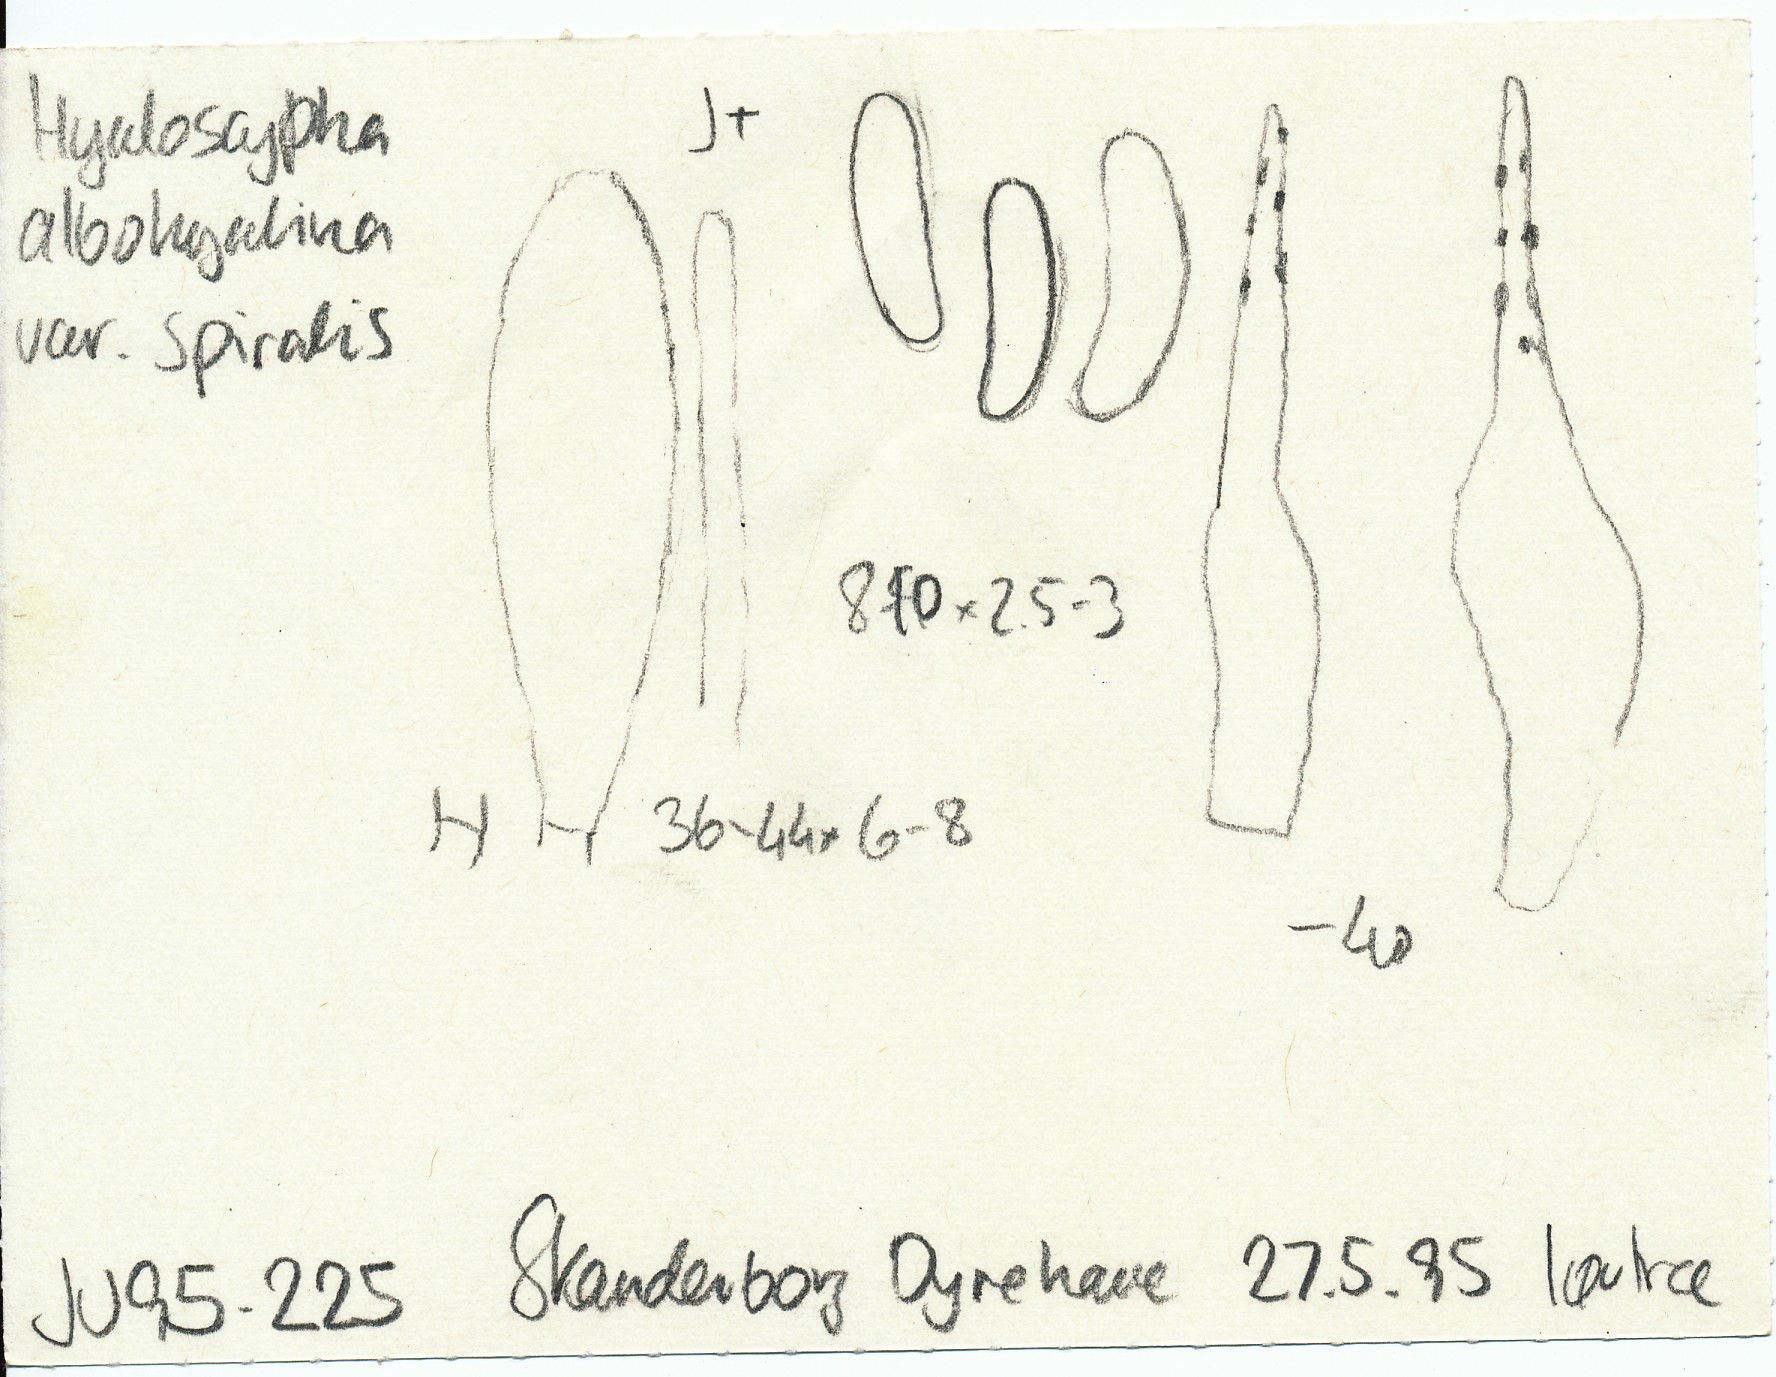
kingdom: Fungi
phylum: Ascomycota
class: Leotiomycetes
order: Helotiales
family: Hyaloscyphaceae
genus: Hyaloscypha
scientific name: Hyaloscypha albohyalina
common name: hvid klarskive
